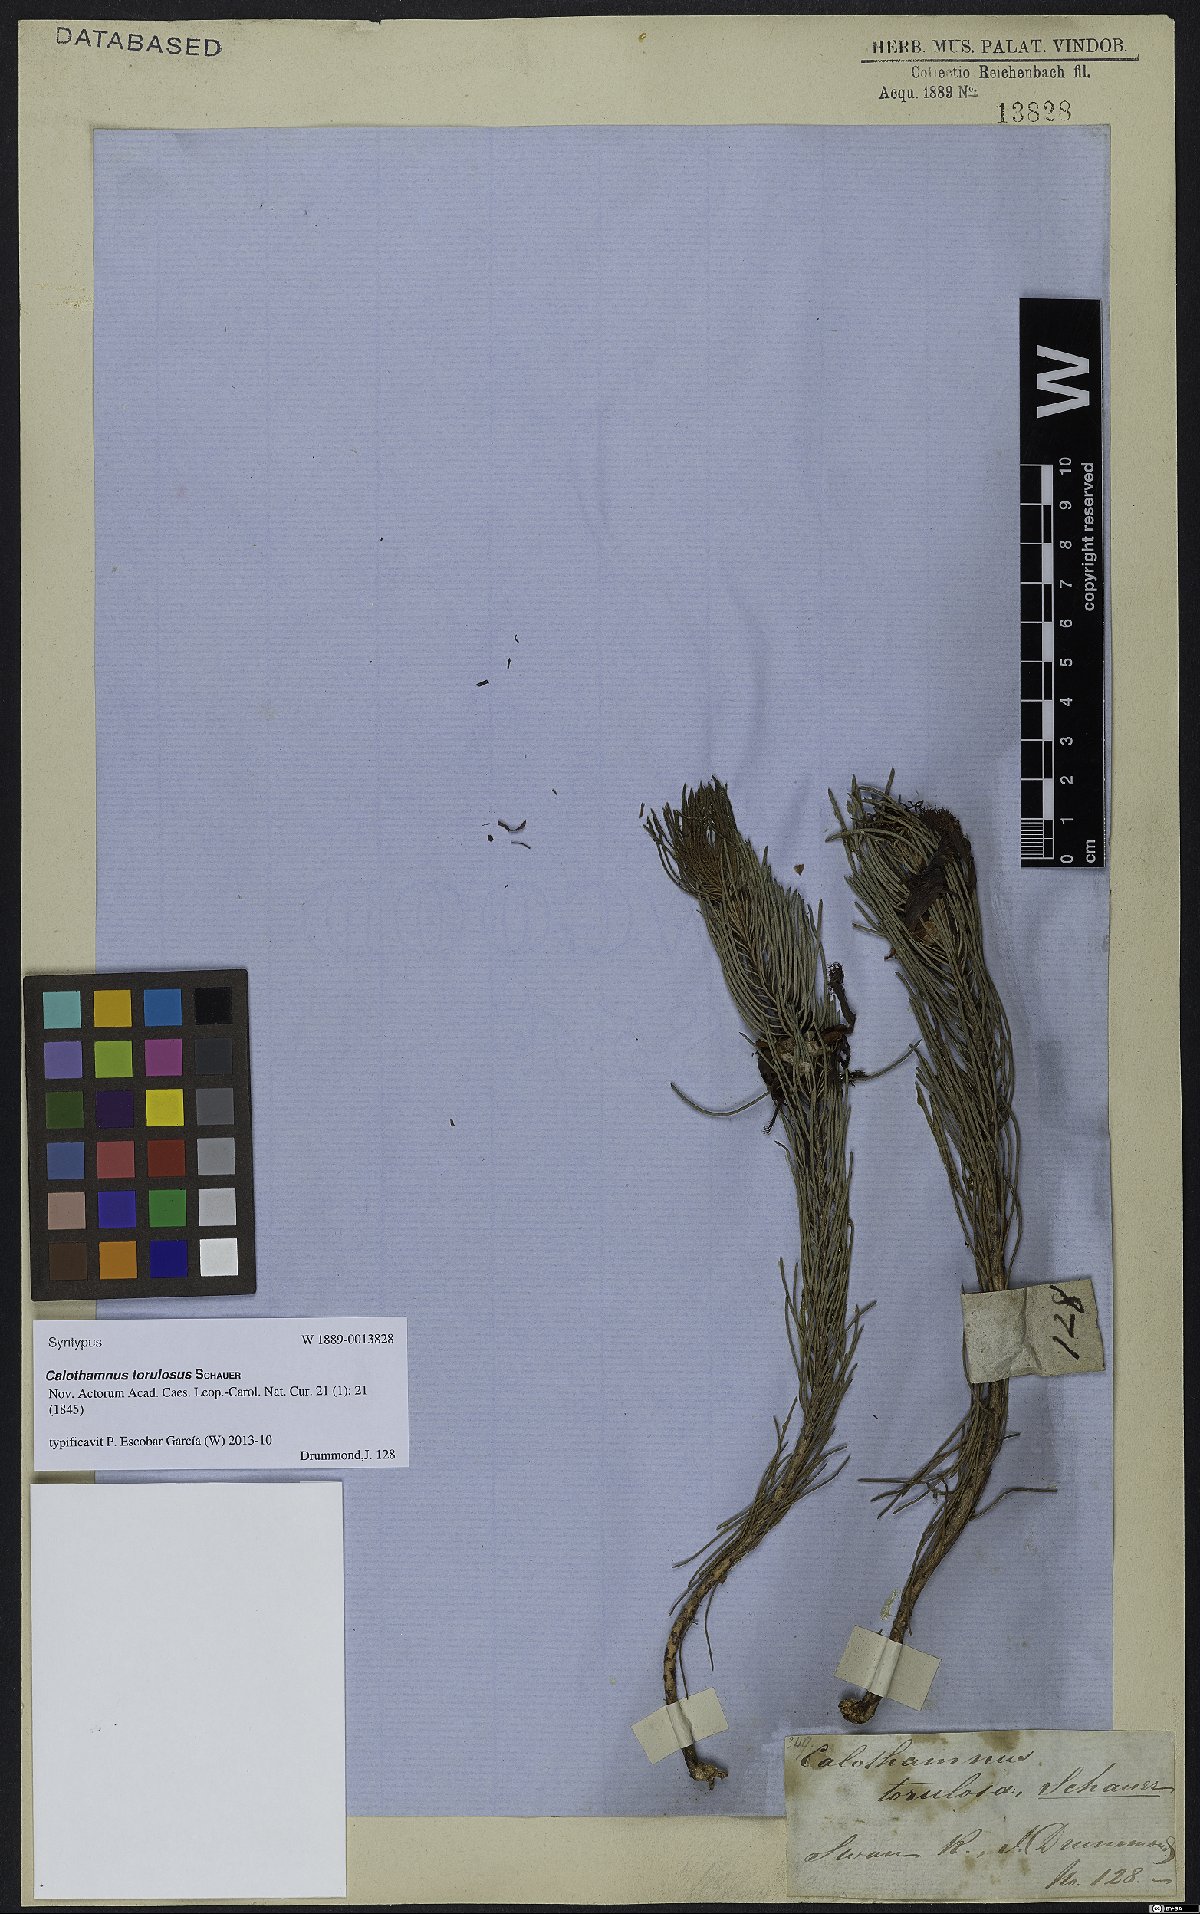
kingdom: Plantae
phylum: Tracheophyta
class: Magnoliopsida
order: Myrtales
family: Myrtaceae
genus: Melaleuca
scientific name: Melaleuca torulosa
